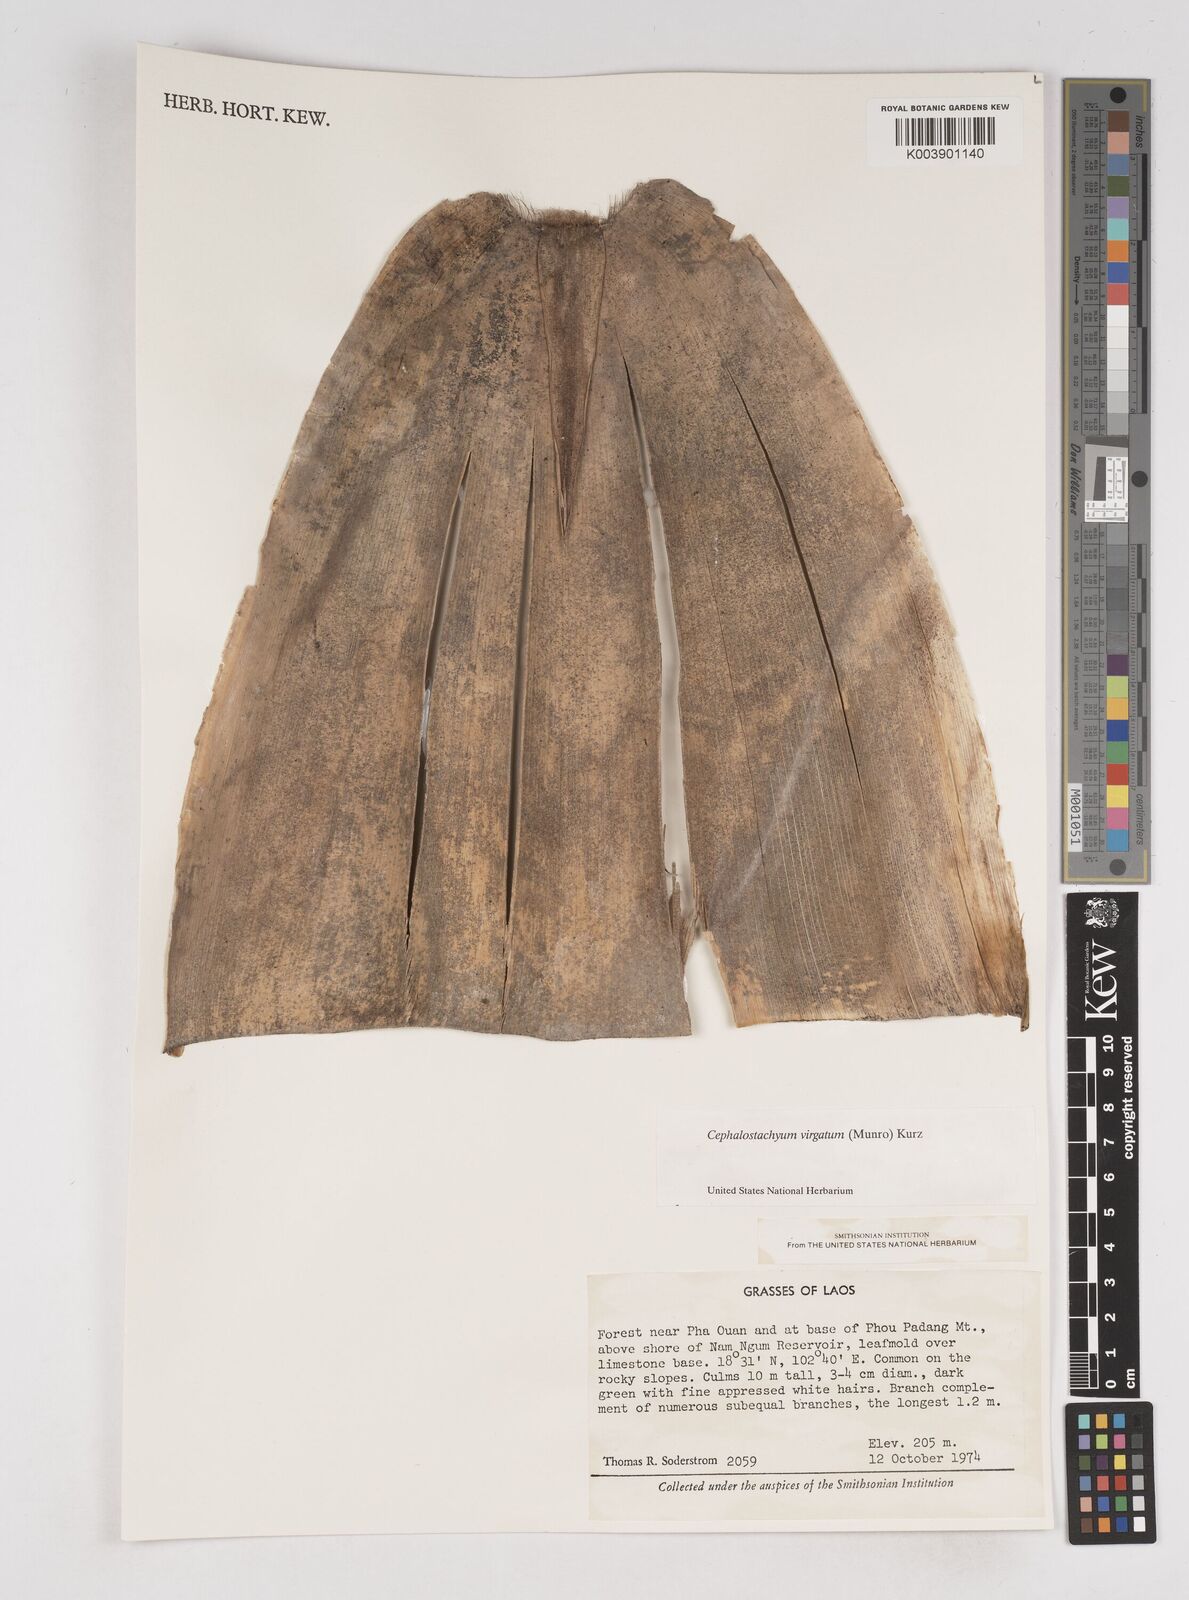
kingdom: Plantae
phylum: Tracheophyta
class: Liliopsida
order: Poales
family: Poaceae
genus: Schizostachyum
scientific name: Schizostachyum virgatum
